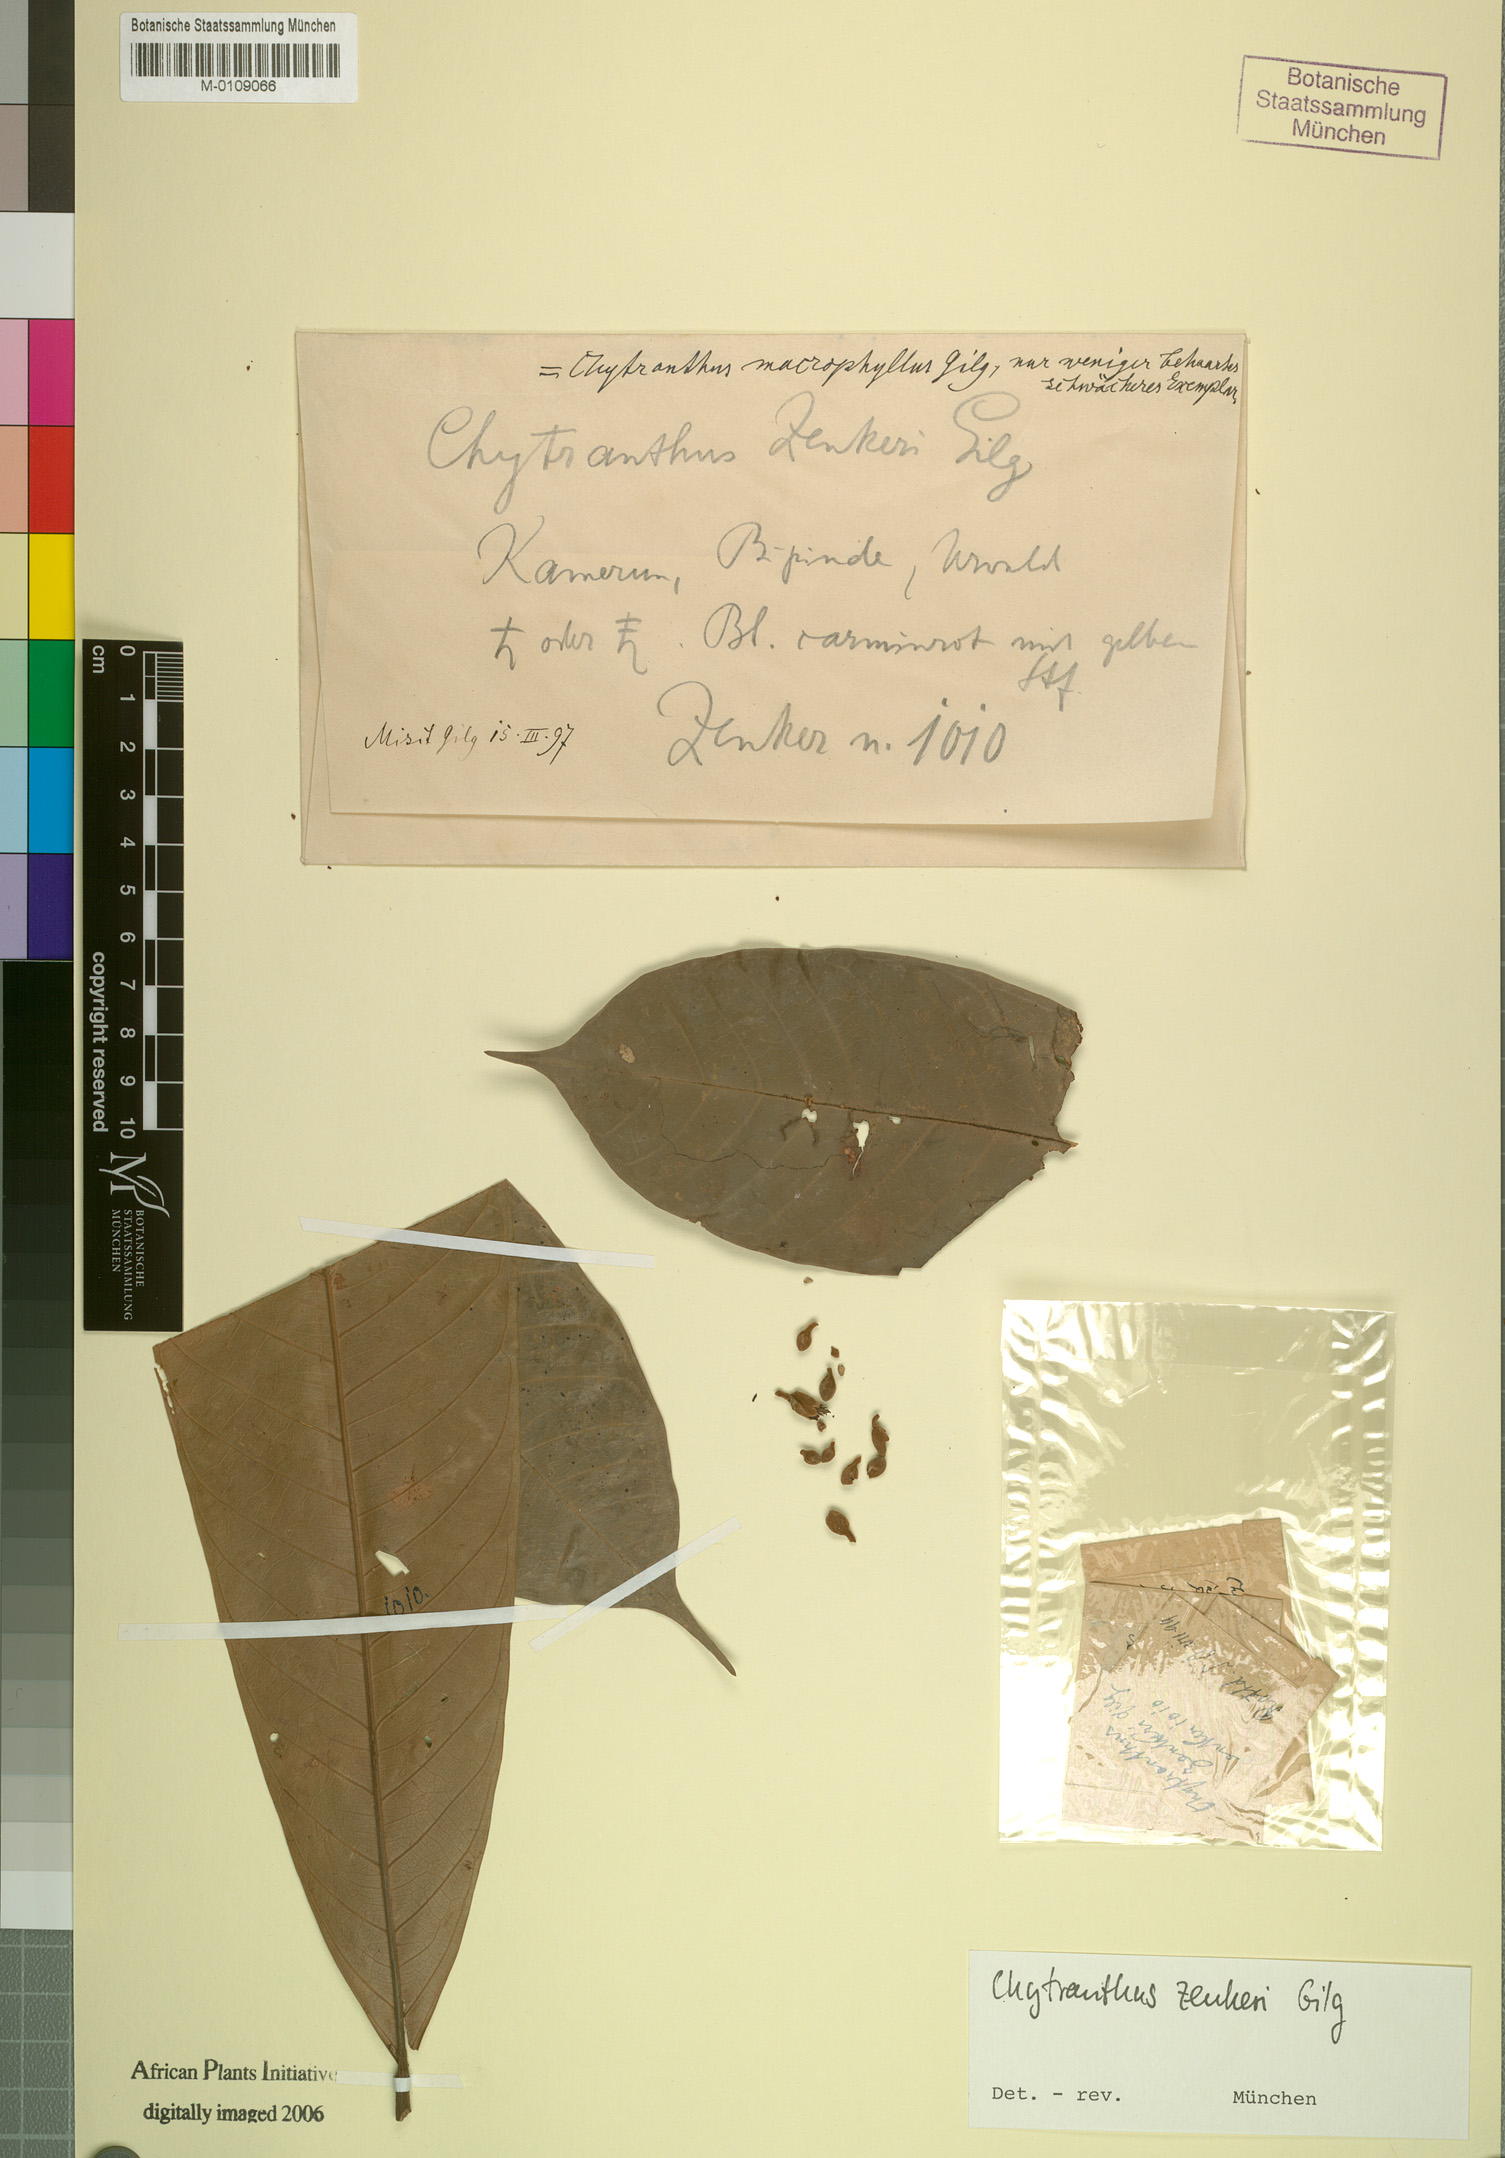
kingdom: Plantae
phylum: Tracheophyta
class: Magnoliopsida
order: Sapindales
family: Sapindaceae
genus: Chytranthus
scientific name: Chytranthus macrophyllus
